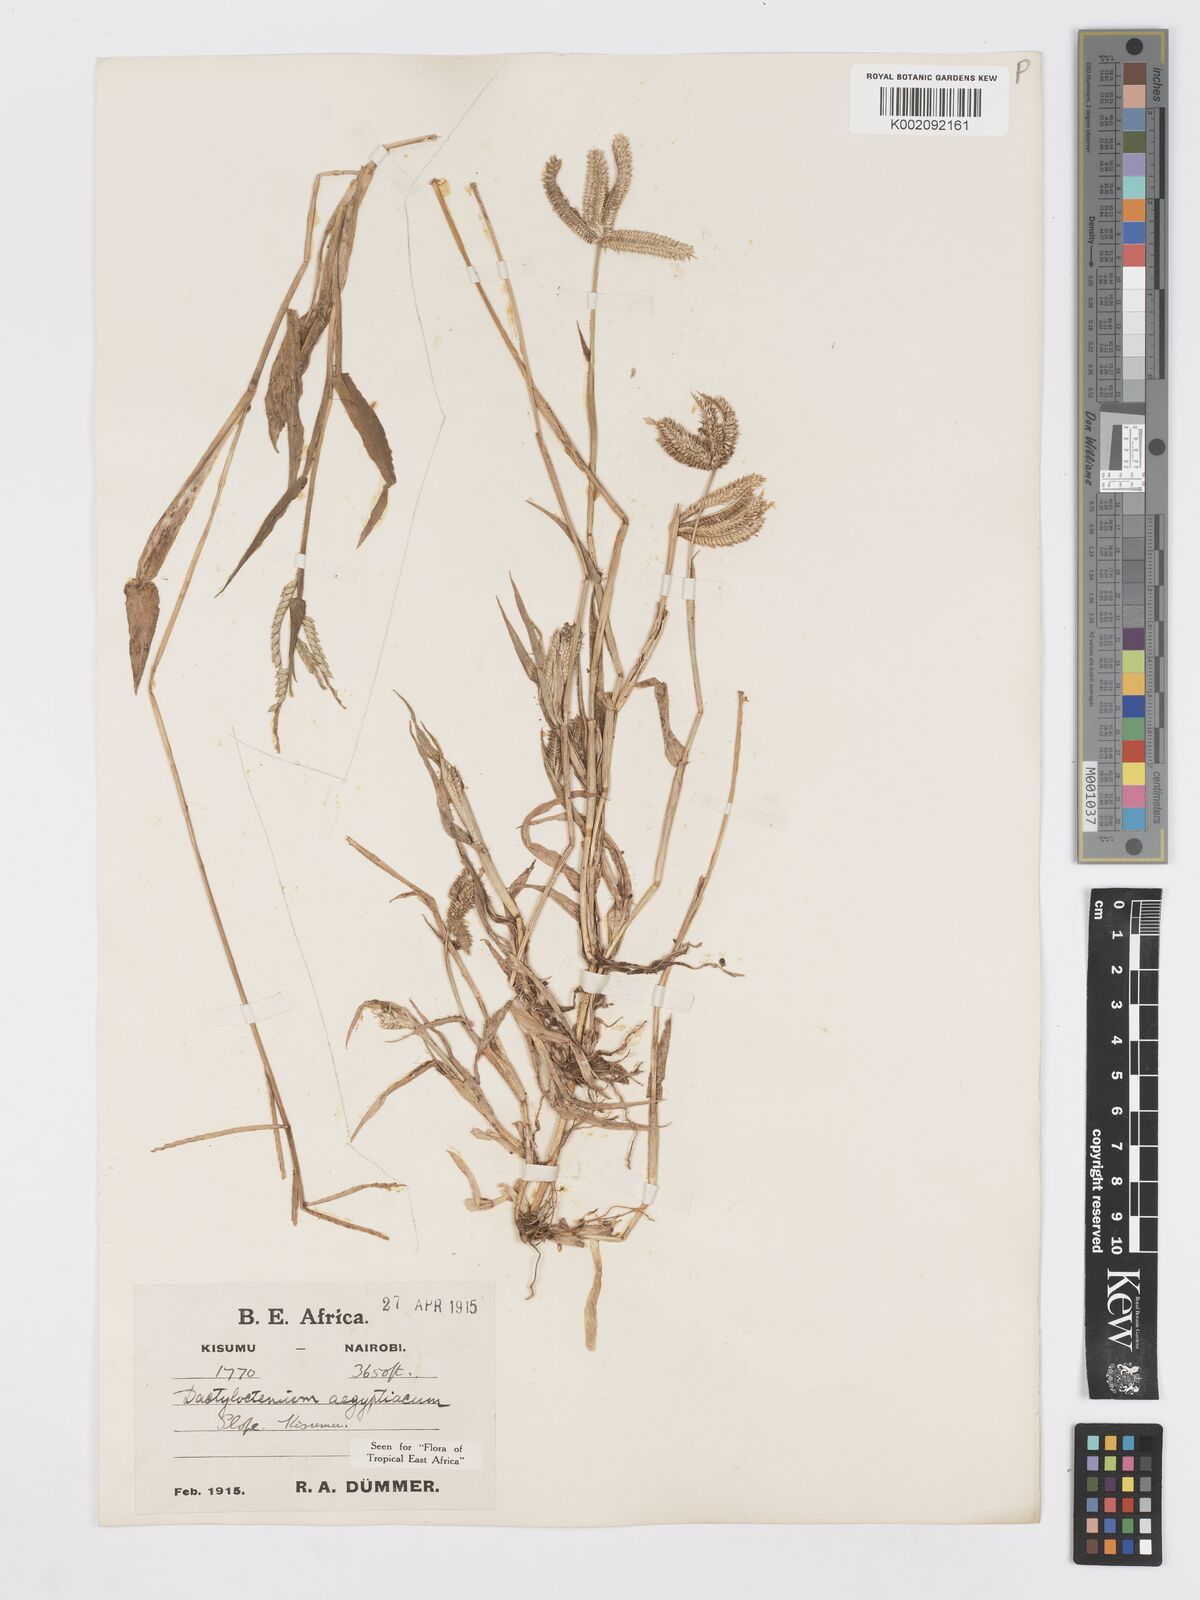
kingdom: Plantae
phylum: Tracheophyta
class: Liliopsida
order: Poales
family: Poaceae
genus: Dactyloctenium
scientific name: Dactyloctenium aegyptium
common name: Egyptian grass
